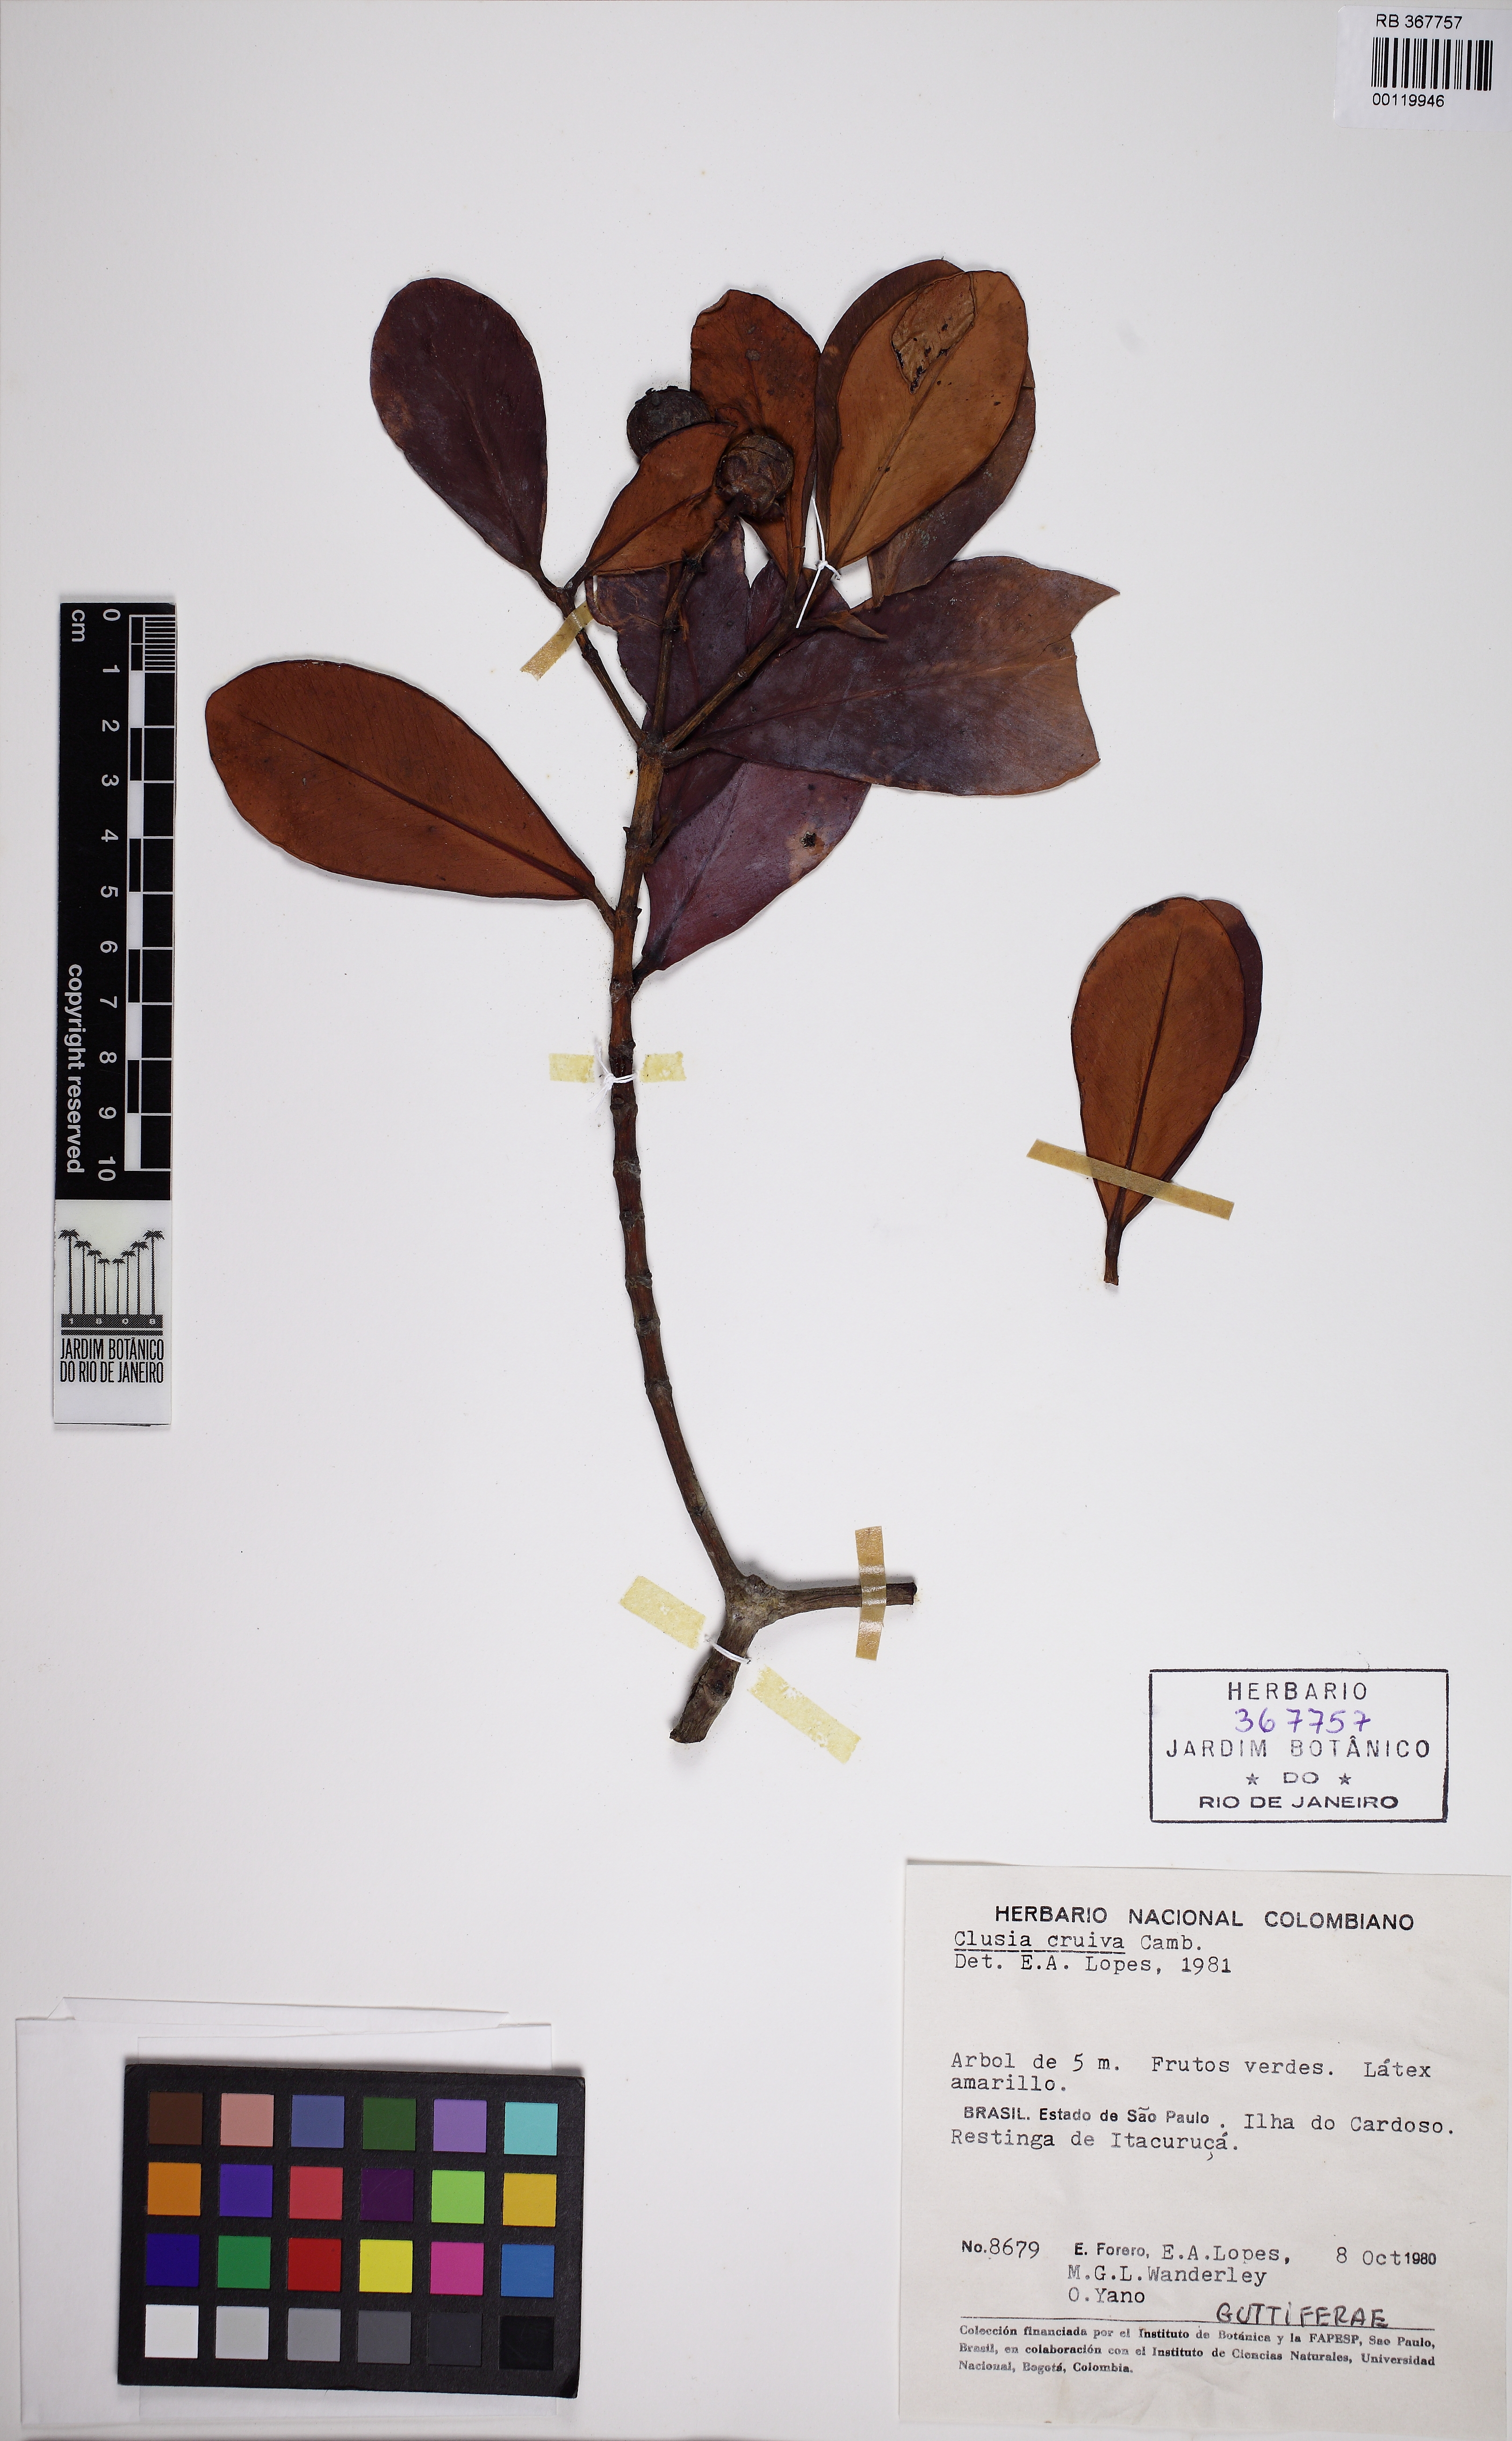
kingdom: Plantae
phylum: Tracheophyta
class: Magnoliopsida
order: Malpighiales
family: Clusiaceae
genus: Clusia
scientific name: Clusia criuva
